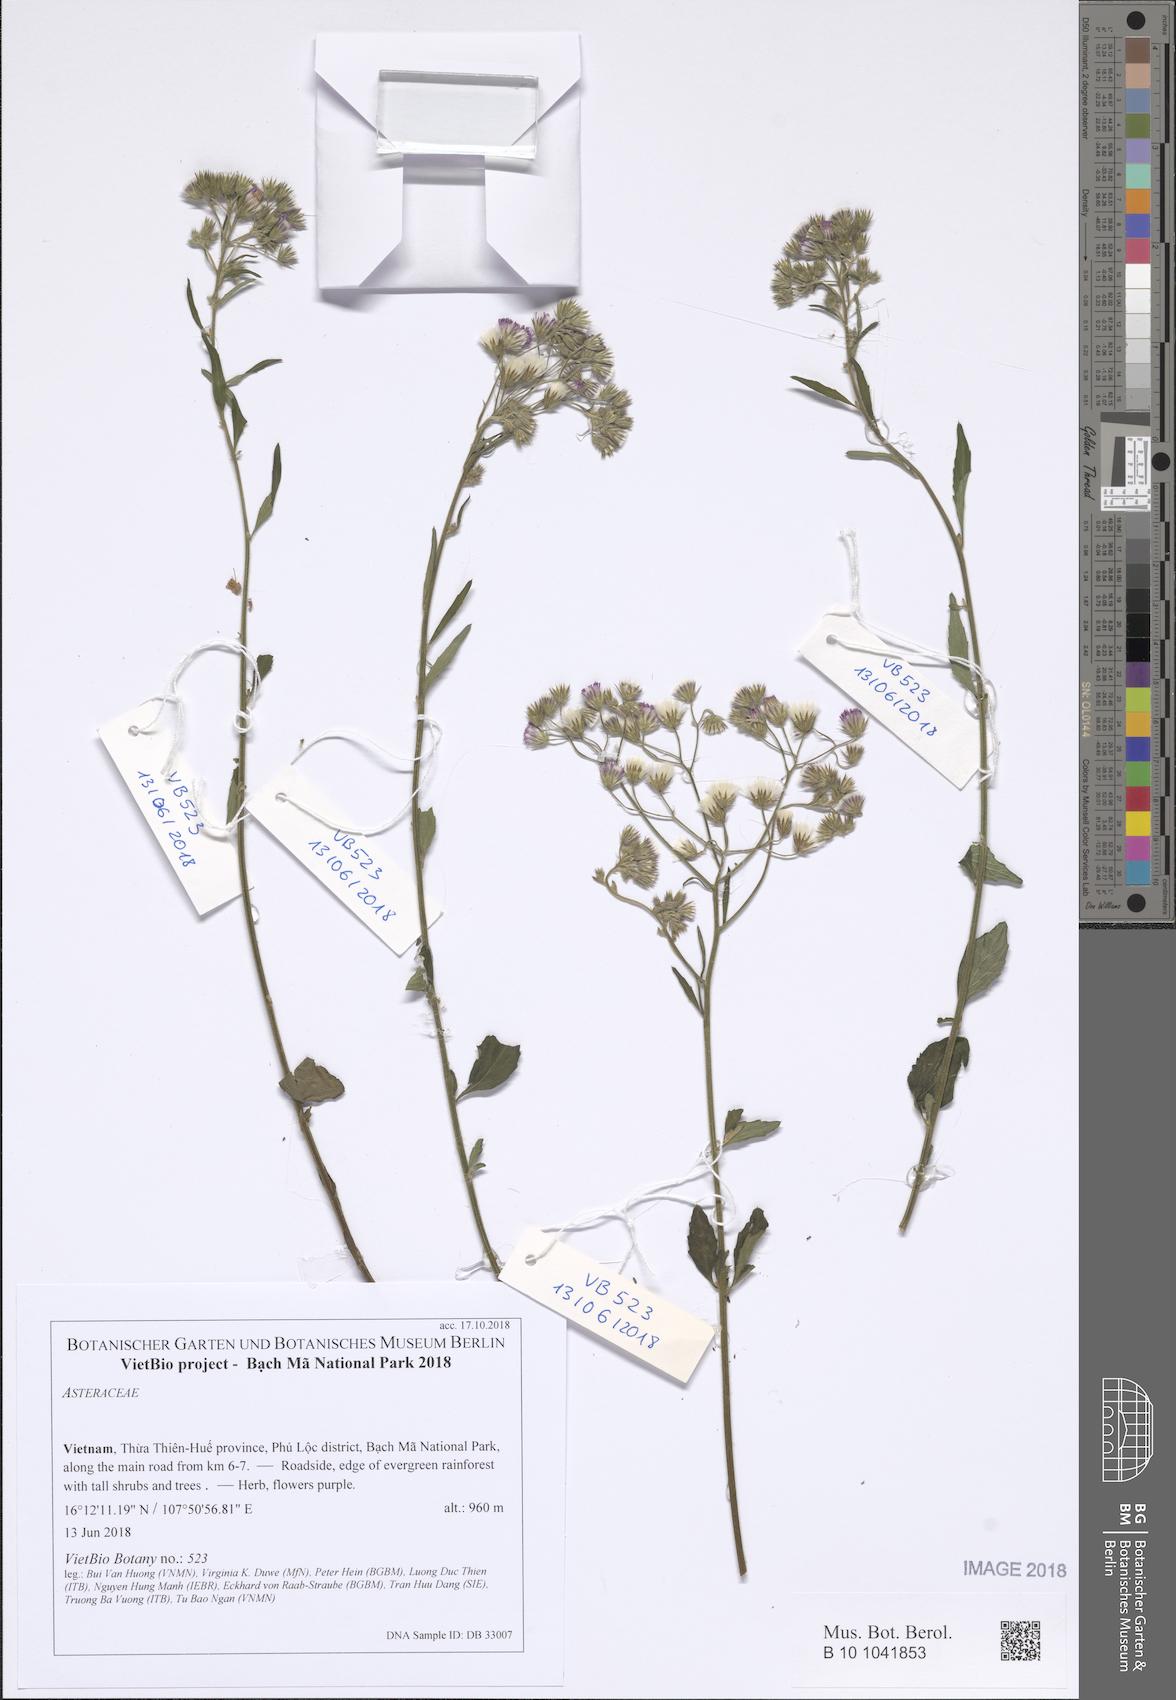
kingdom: Plantae
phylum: Tracheophyta
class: Magnoliopsida
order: Asterales
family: Asteraceae
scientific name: Asteraceae
